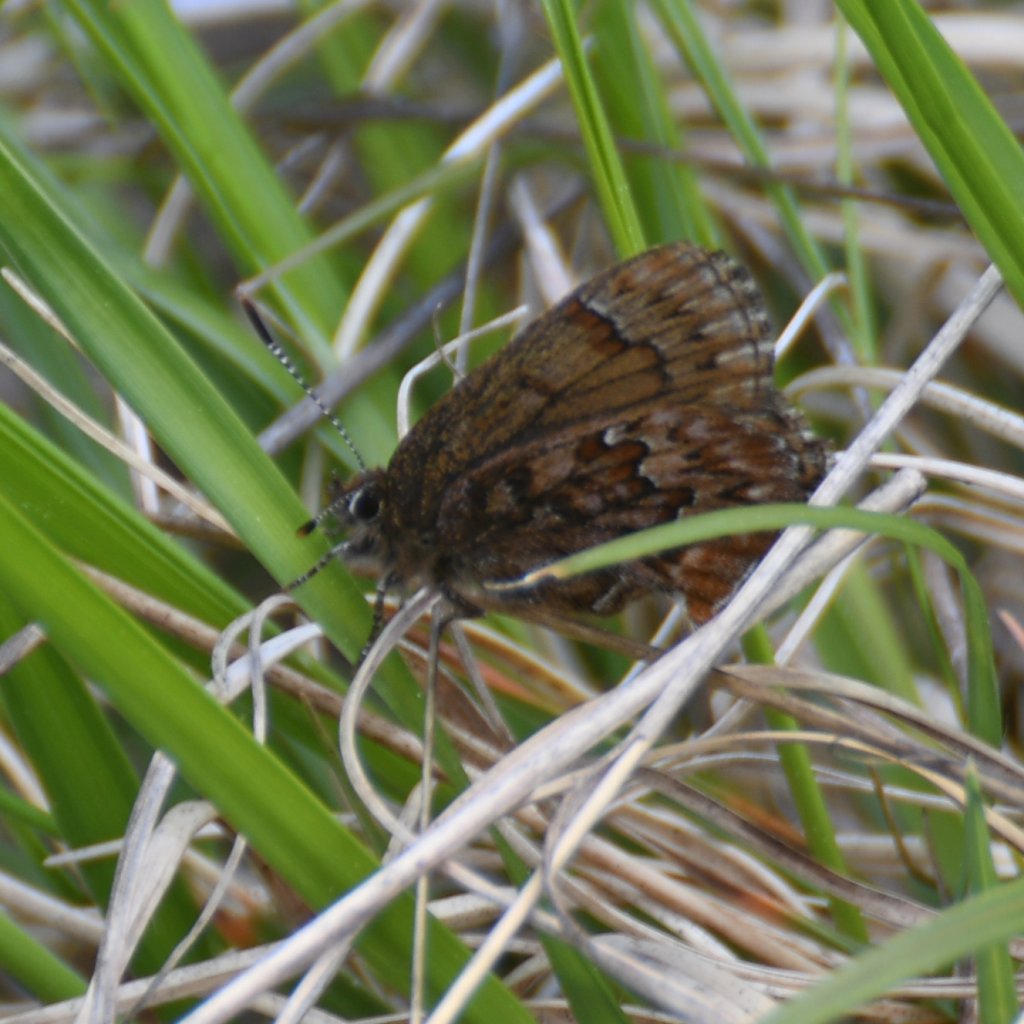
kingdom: Animalia
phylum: Arthropoda
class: Insecta
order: Lepidoptera
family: Lycaenidae
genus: Incisalia
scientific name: Incisalia eryphon
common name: Western Pine Elfin
